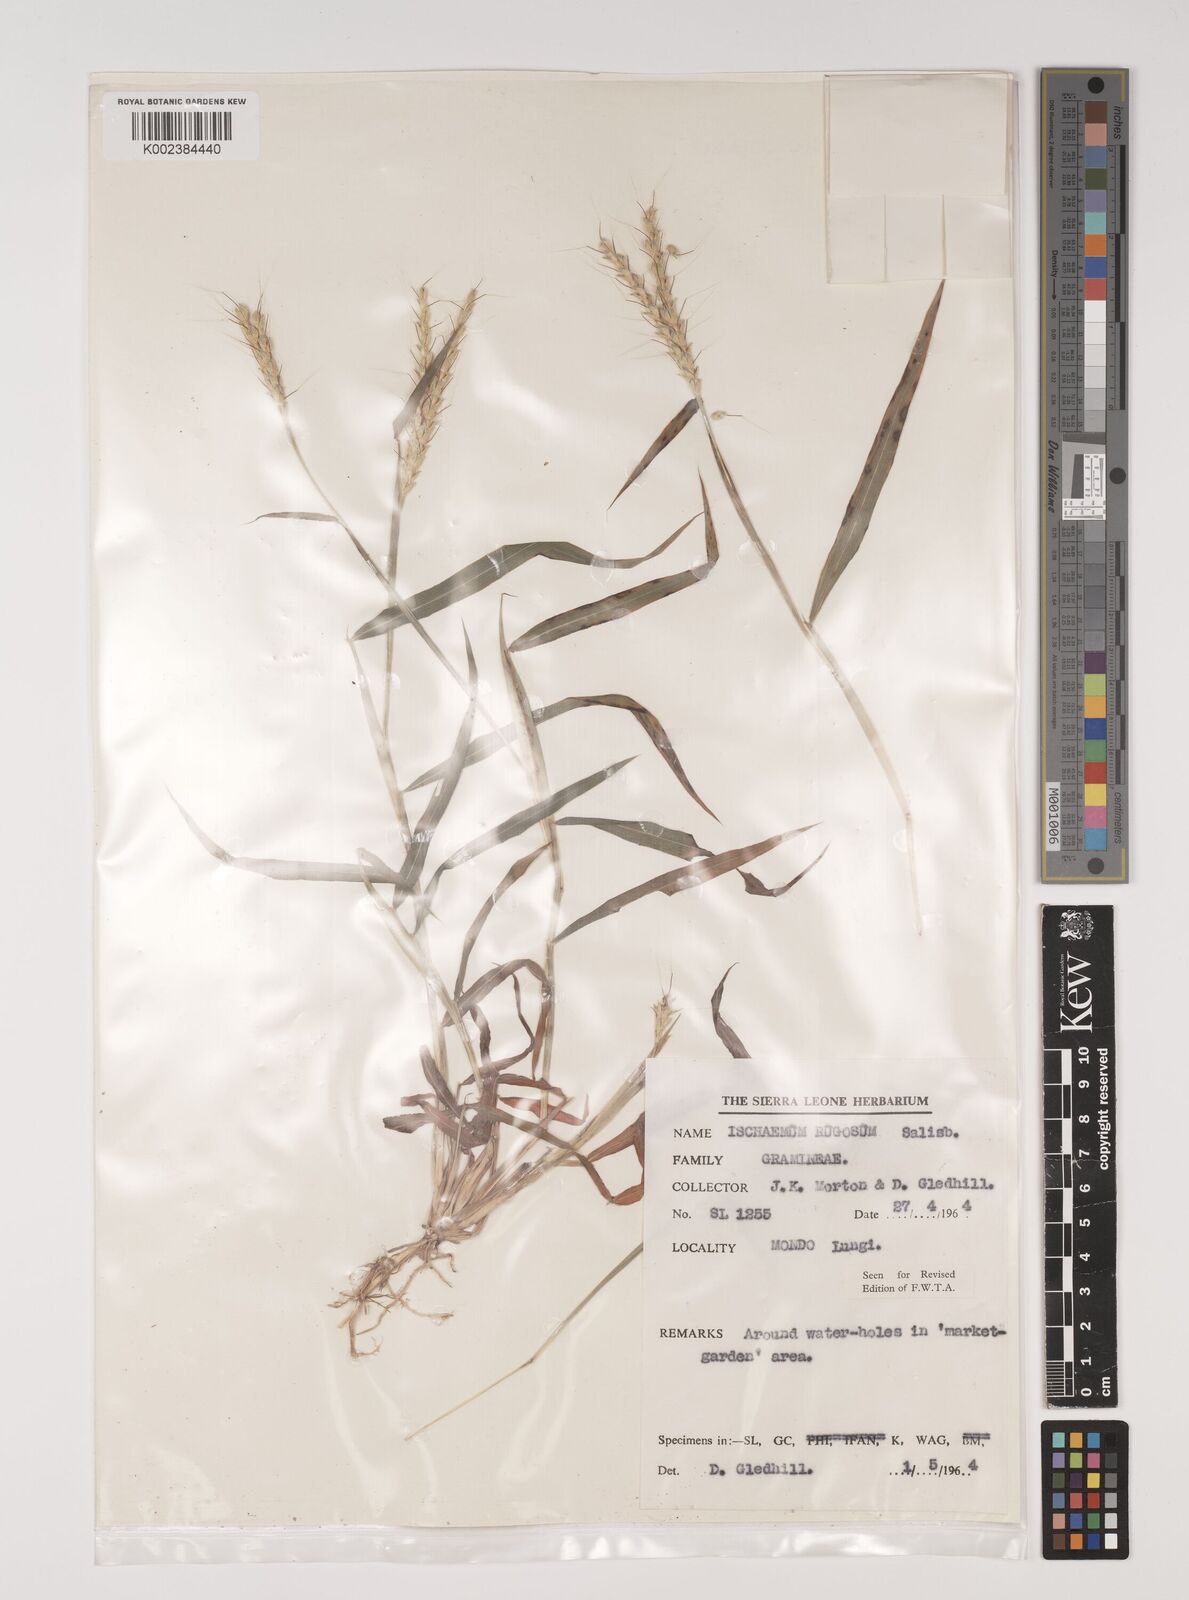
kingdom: Plantae
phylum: Tracheophyta
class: Liliopsida
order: Poales
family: Poaceae
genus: Ischaemum
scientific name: Ischaemum rugosum
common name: Saramatta grass
